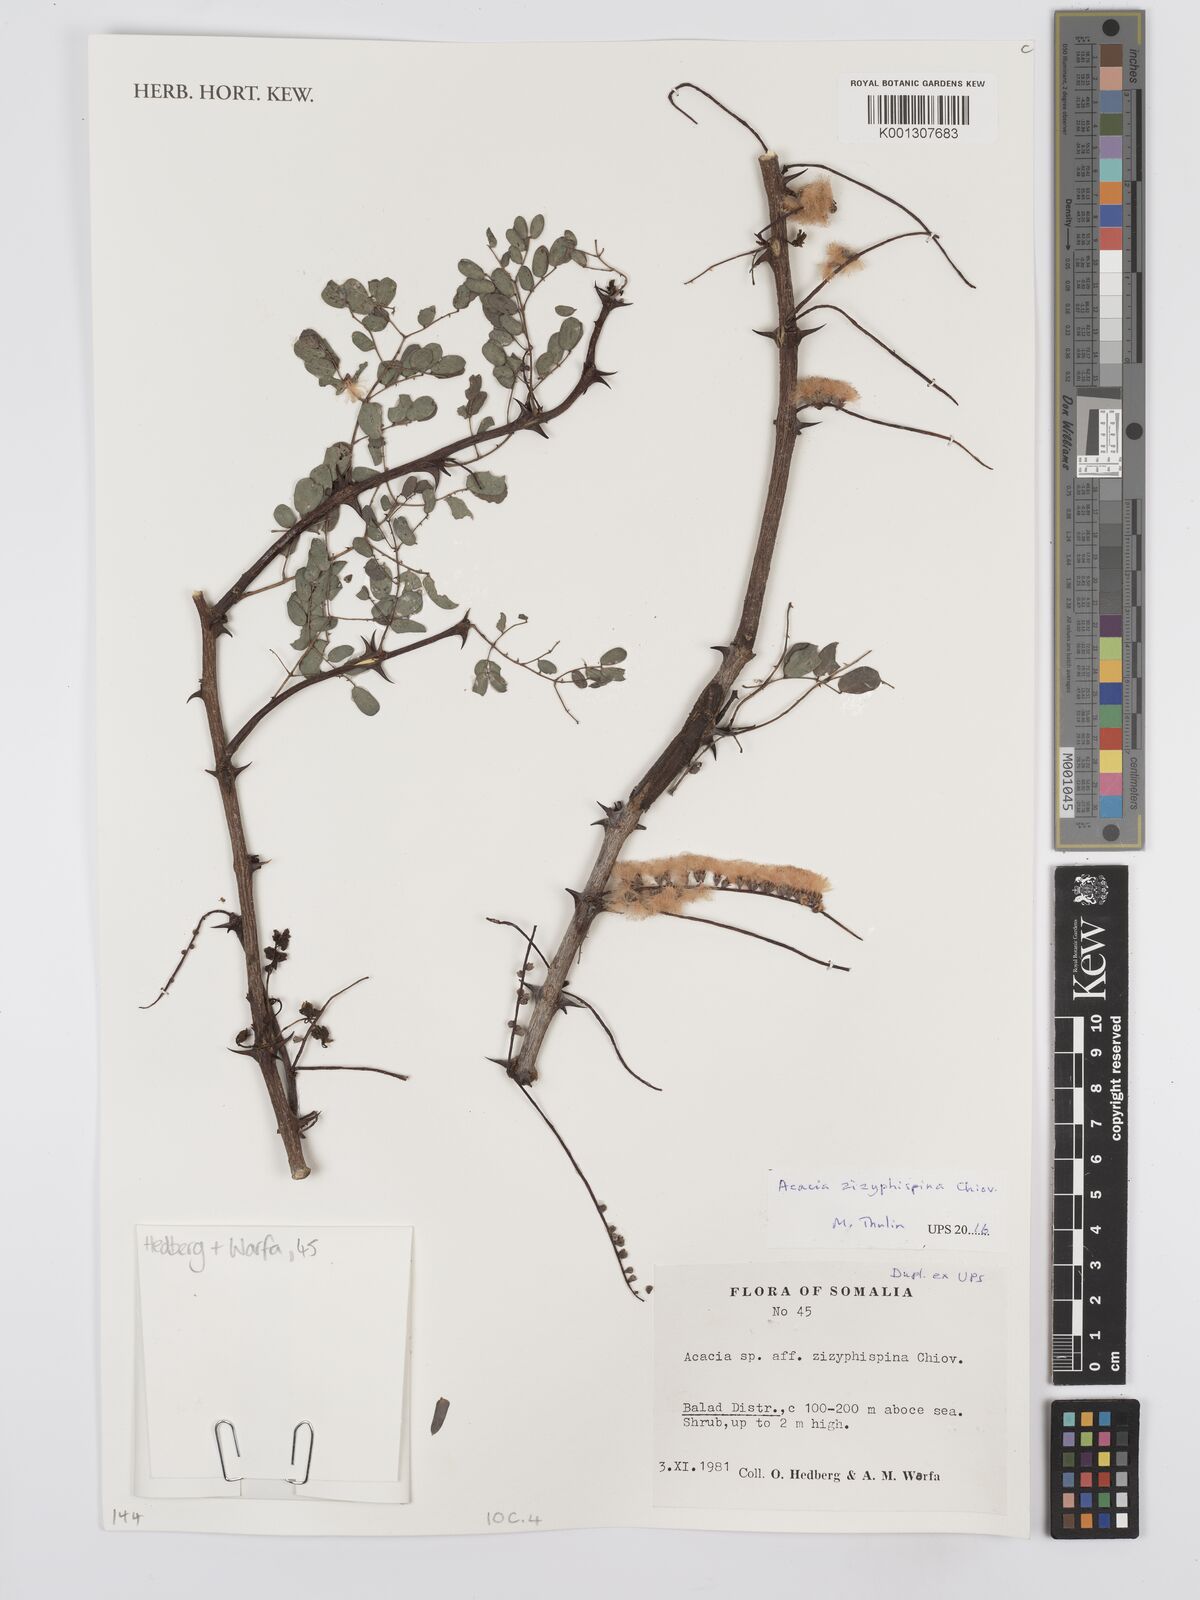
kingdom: Plantae
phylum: Tracheophyta
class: Magnoliopsida
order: Fabales
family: Fabaceae
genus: Senegalia
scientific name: Senegalia zizyphispina
